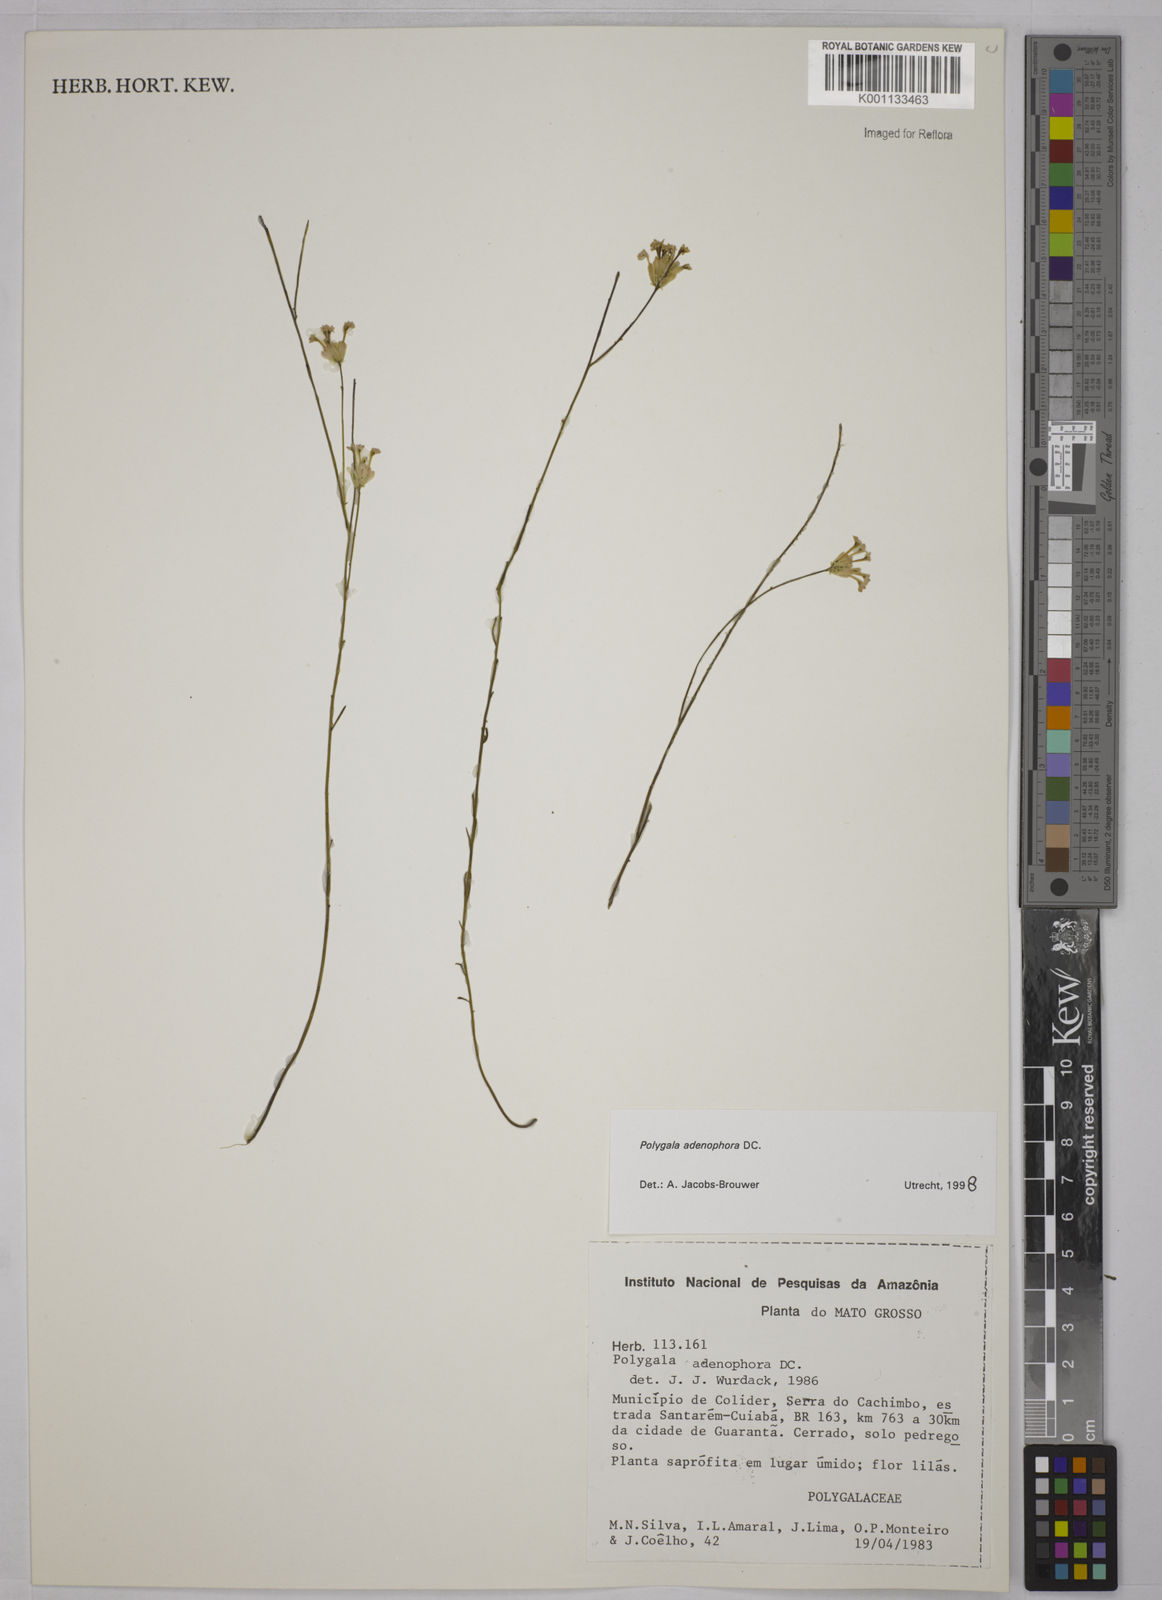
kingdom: Plantae
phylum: Tracheophyta
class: Magnoliopsida
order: Fabales
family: Polygalaceae
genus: Polygala
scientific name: Polygala adenophora
